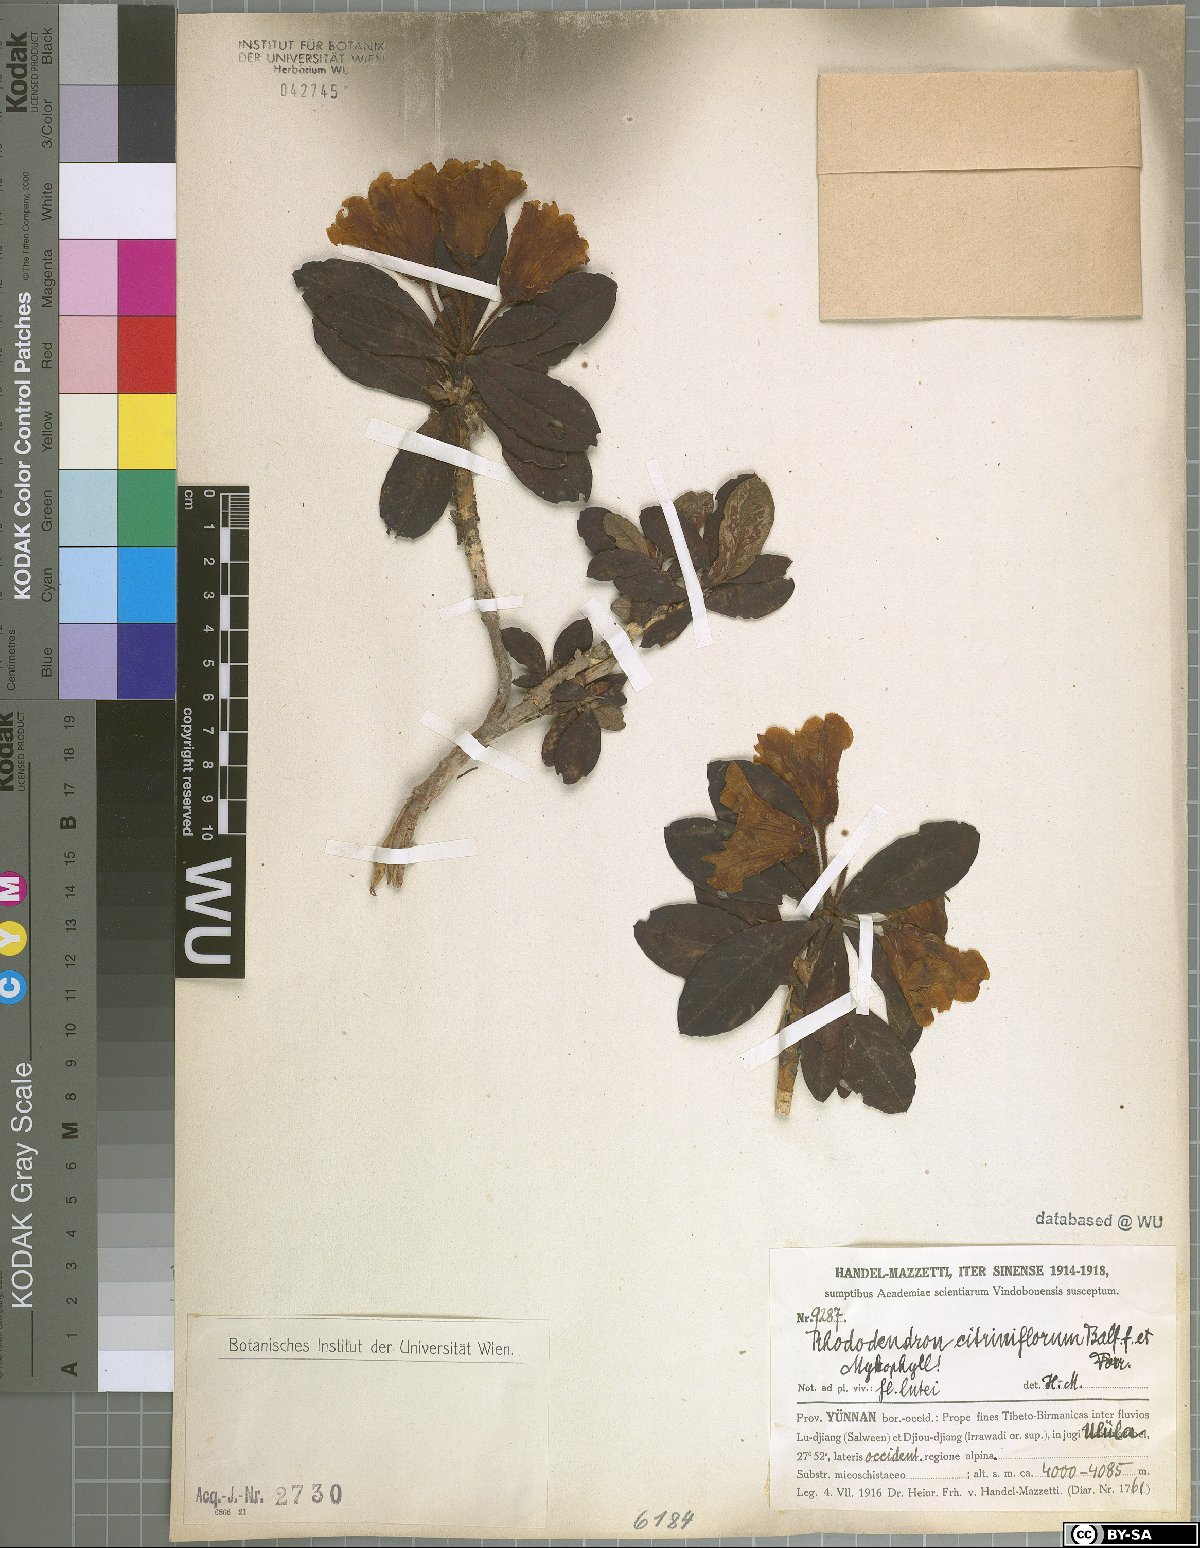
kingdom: Plantae
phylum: Tracheophyta
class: Magnoliopsida
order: Ericales
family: Ericaceae
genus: Rhododendron
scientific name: Rhododendron citriniflorum
